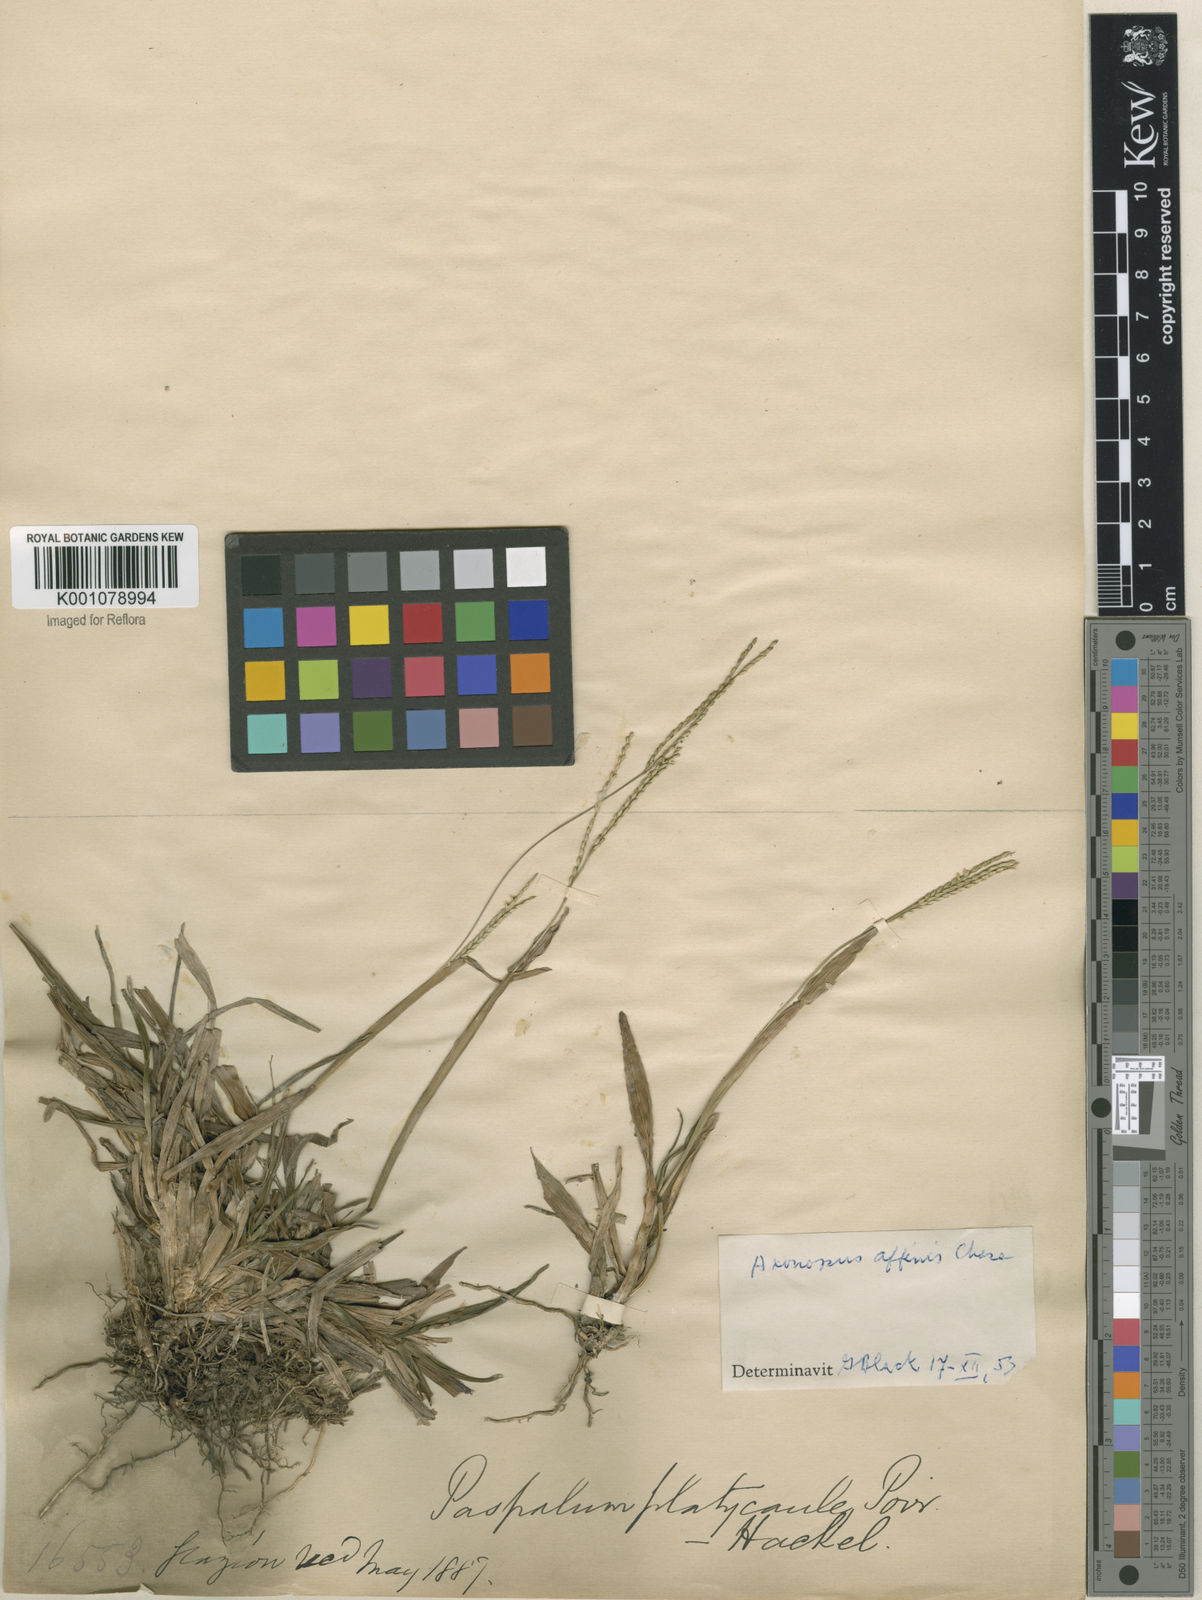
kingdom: Plantae
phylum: Tracheophyta
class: Liliopsida
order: Poales
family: Poaceae
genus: Axonopus
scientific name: Axonopus fissifolius
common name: Common carpetgrass
